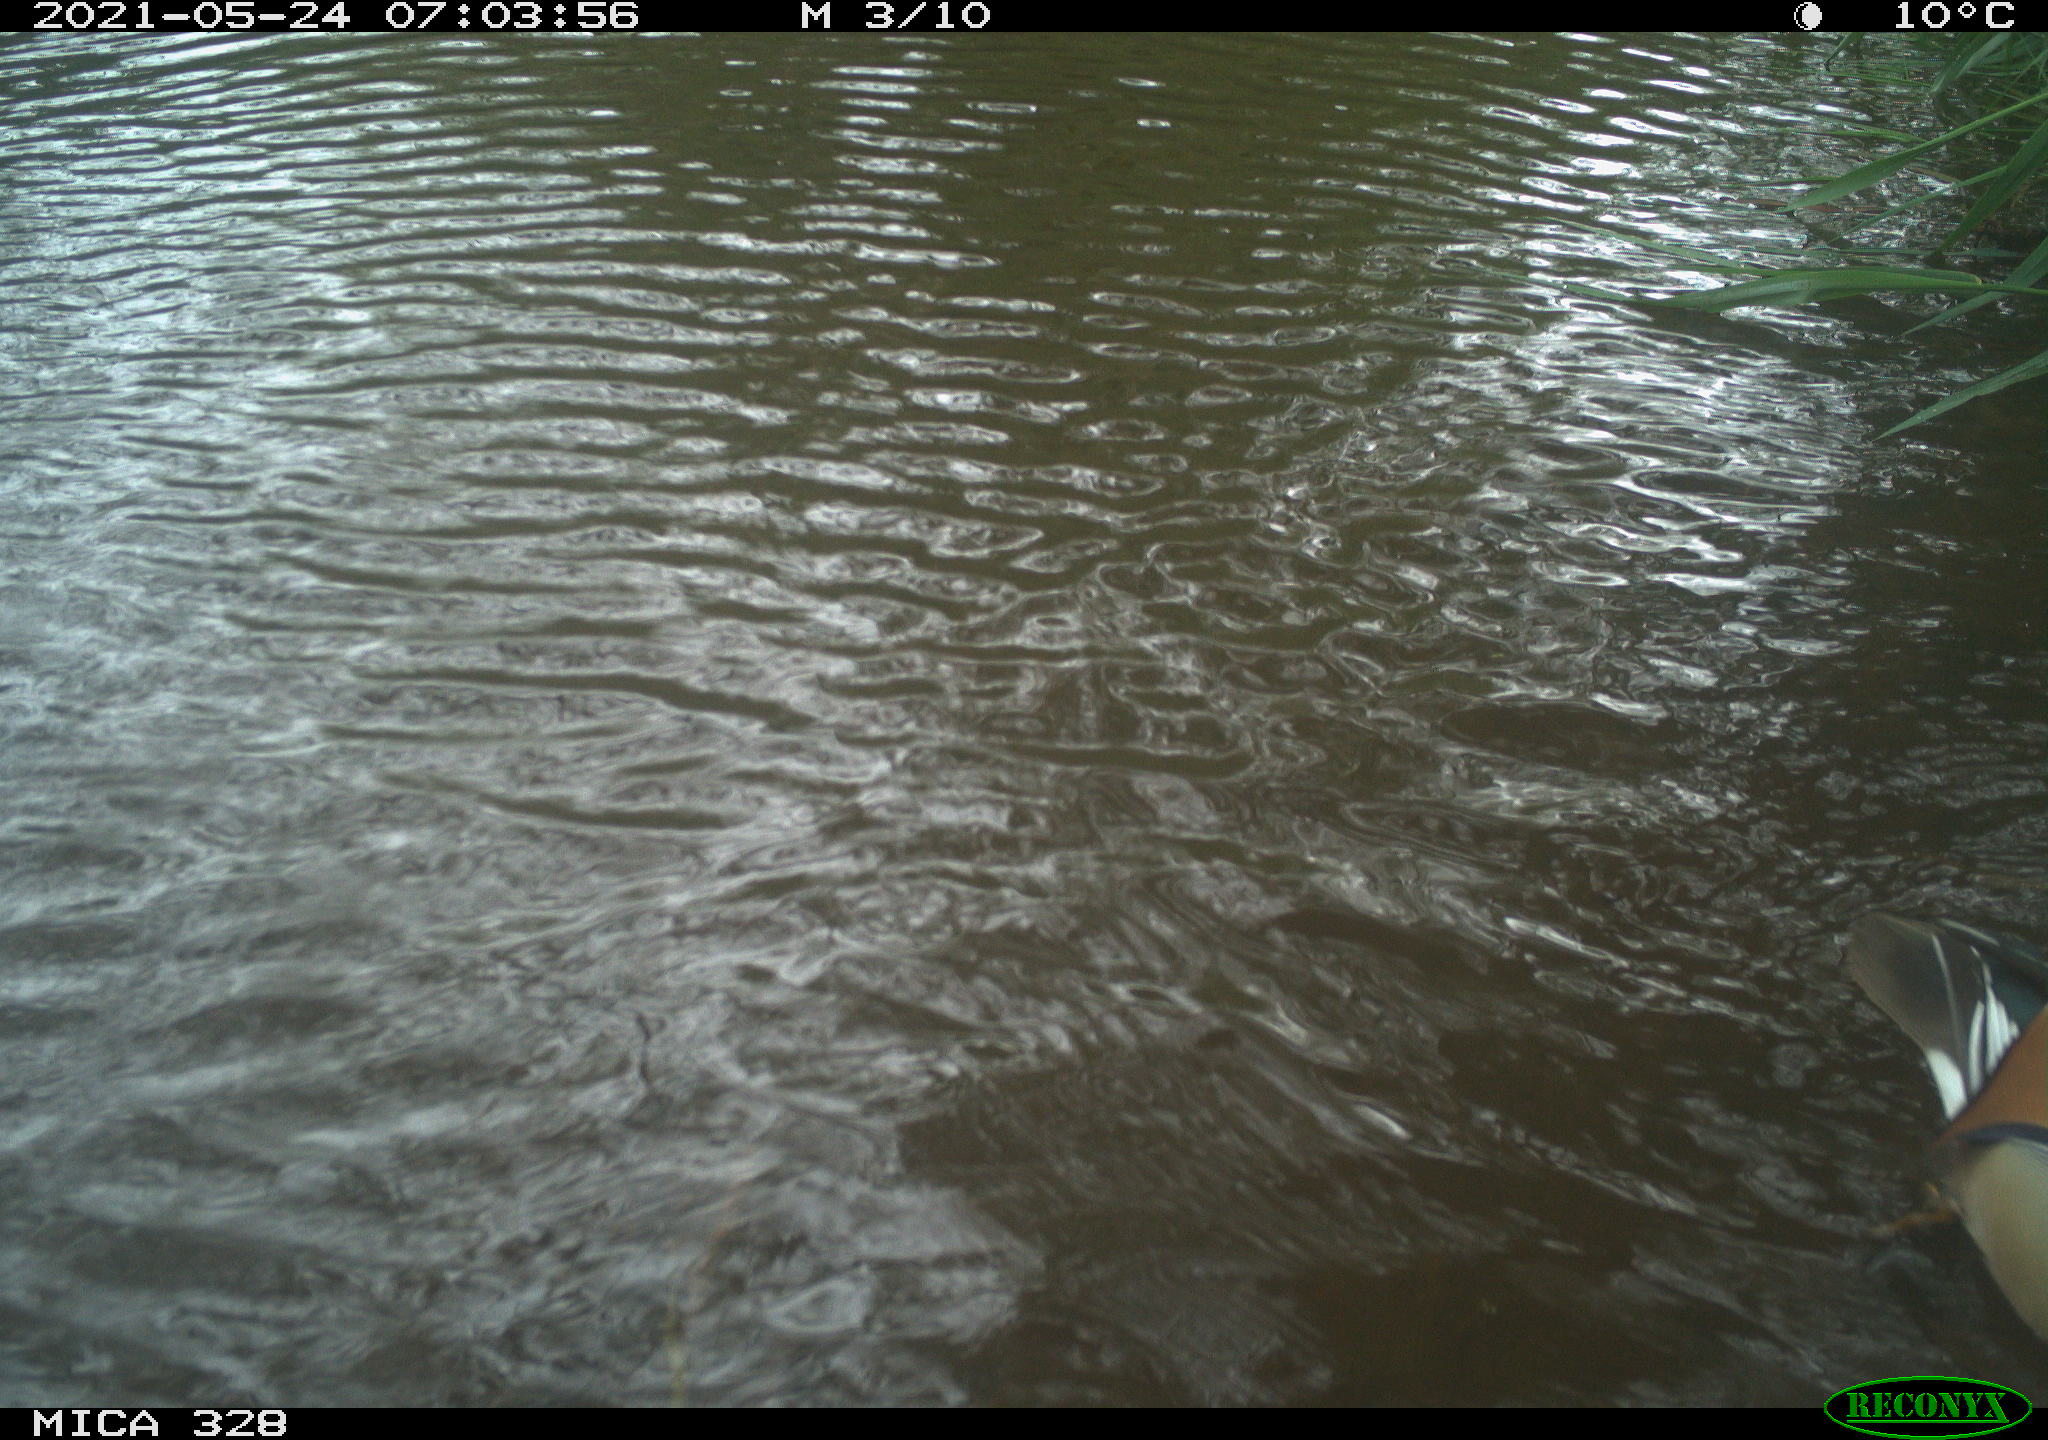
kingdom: Animalia
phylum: Chordata
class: Aves
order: Anseriformes
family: Anatidae
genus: Aix
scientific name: Aix galericulata
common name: Mandarin duck
